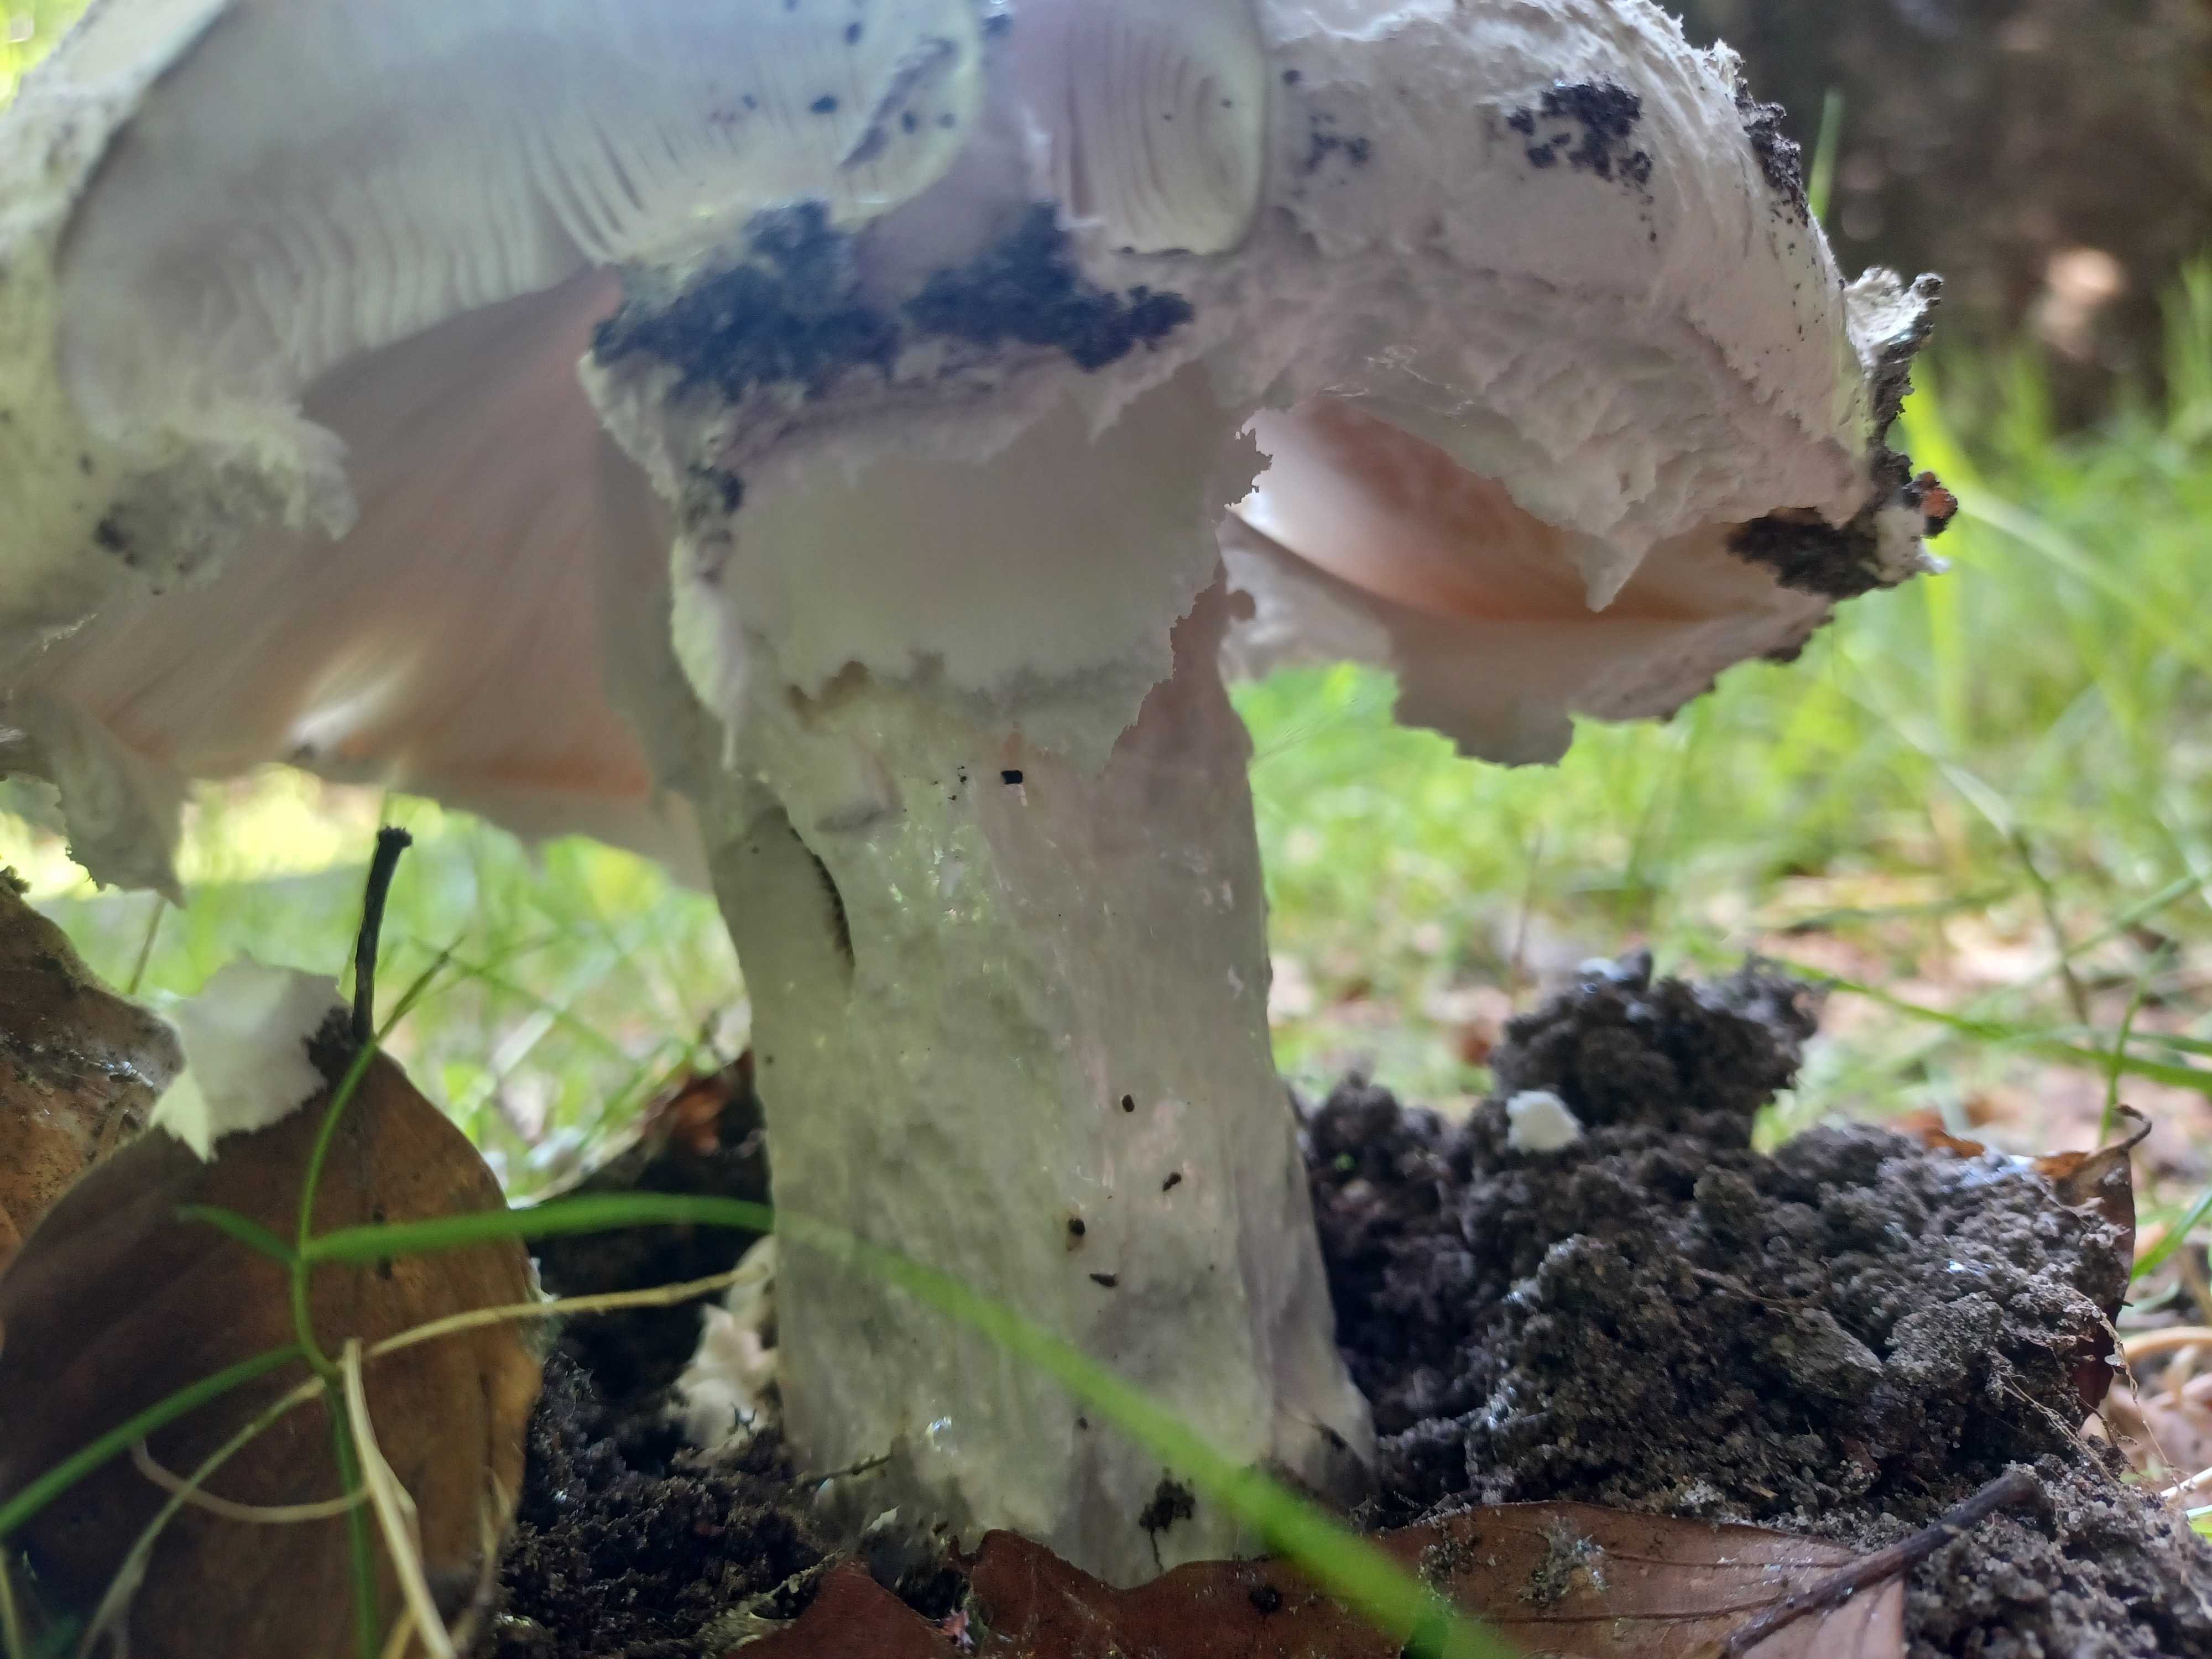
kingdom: Fungi
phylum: Basidiomycota
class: Agaricomycetes
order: Agaricales
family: Amanitaceae
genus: Amanita
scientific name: Amanita
